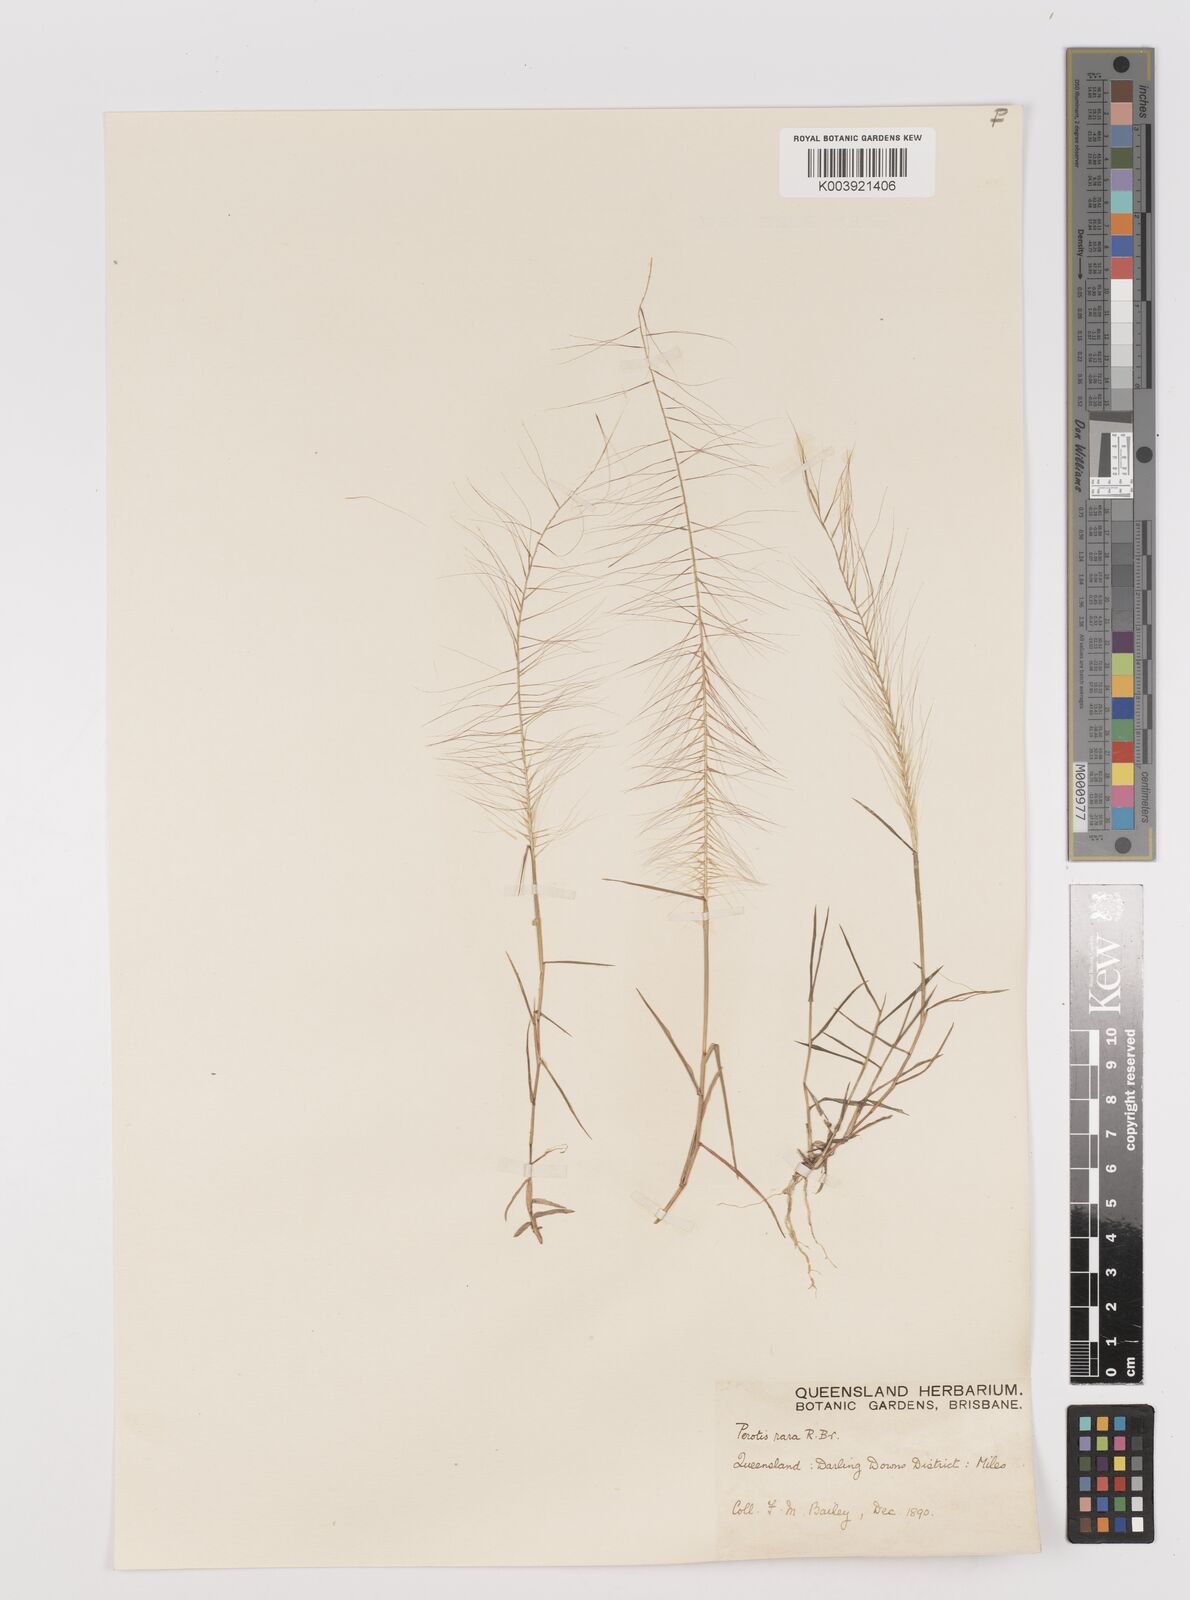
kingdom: Plantae
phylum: Tracheophyta
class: Liliopsida
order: Poales
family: Poaceae
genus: Perotis
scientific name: Perotis rara
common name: Comet grass
